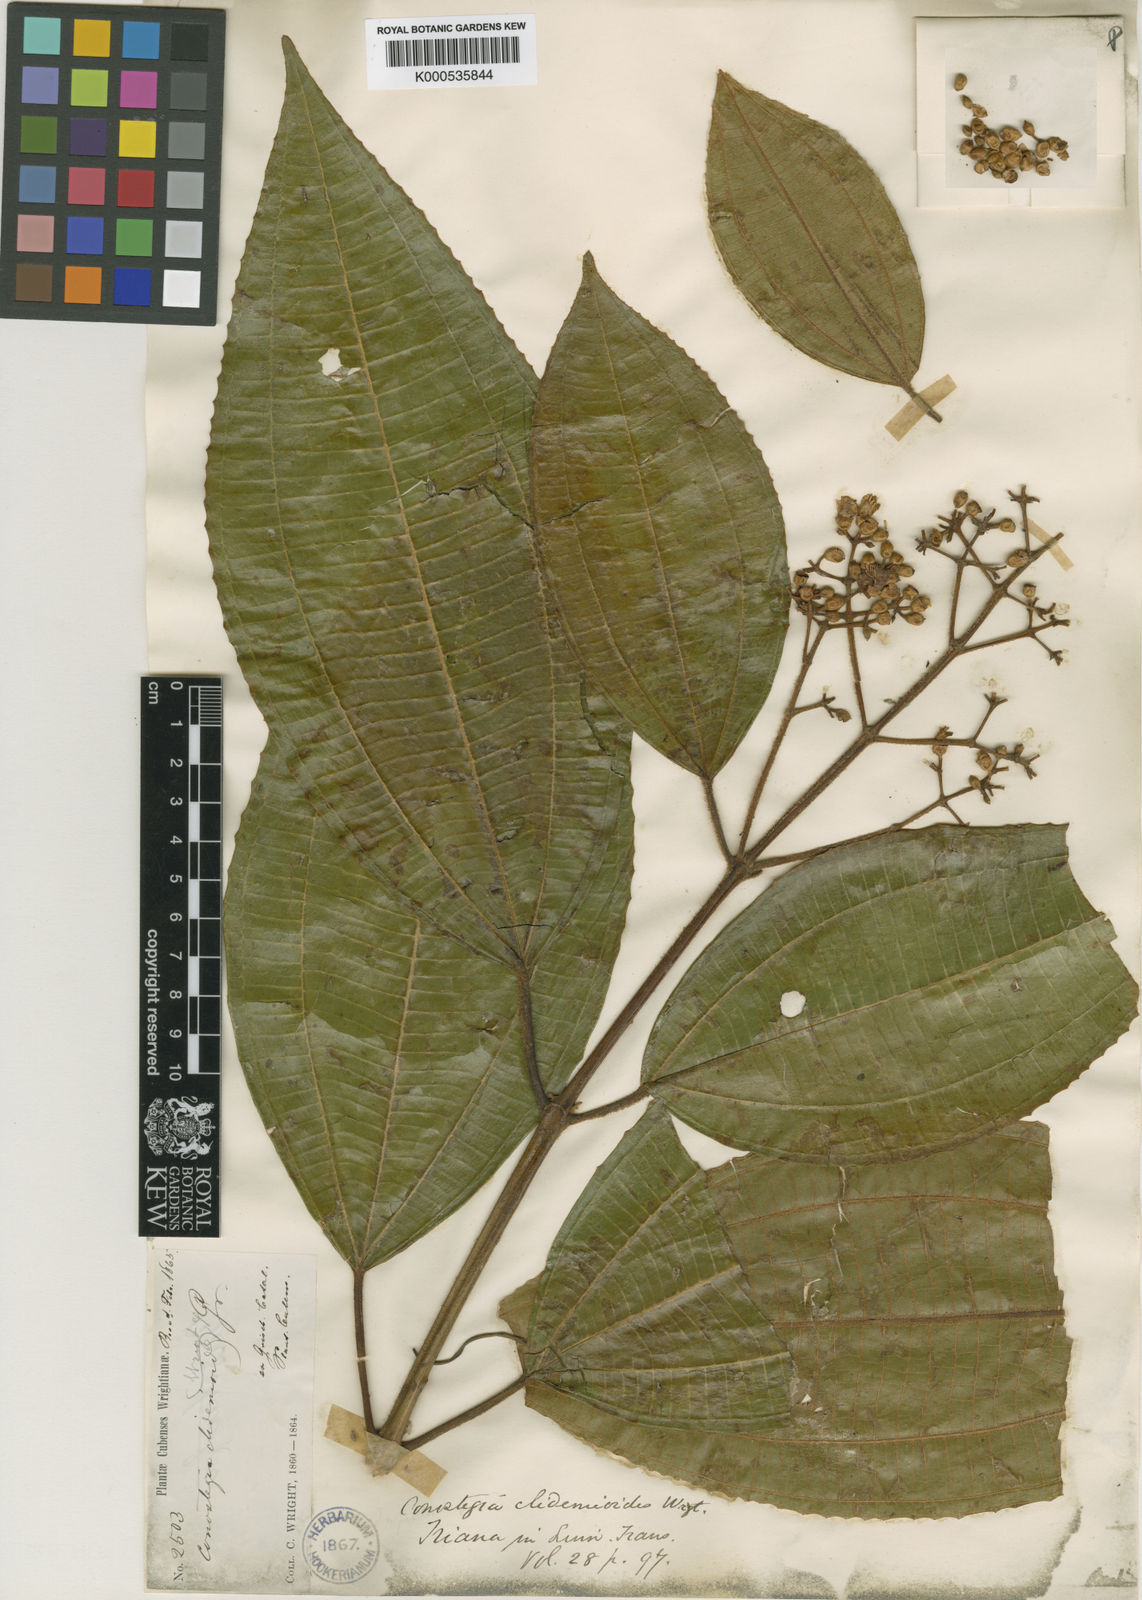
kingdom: Plantae
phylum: Tracheophyta
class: Magnoliopsida
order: Myrtales
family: Melastomataceae
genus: Miconia
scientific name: Miconia baillonii
